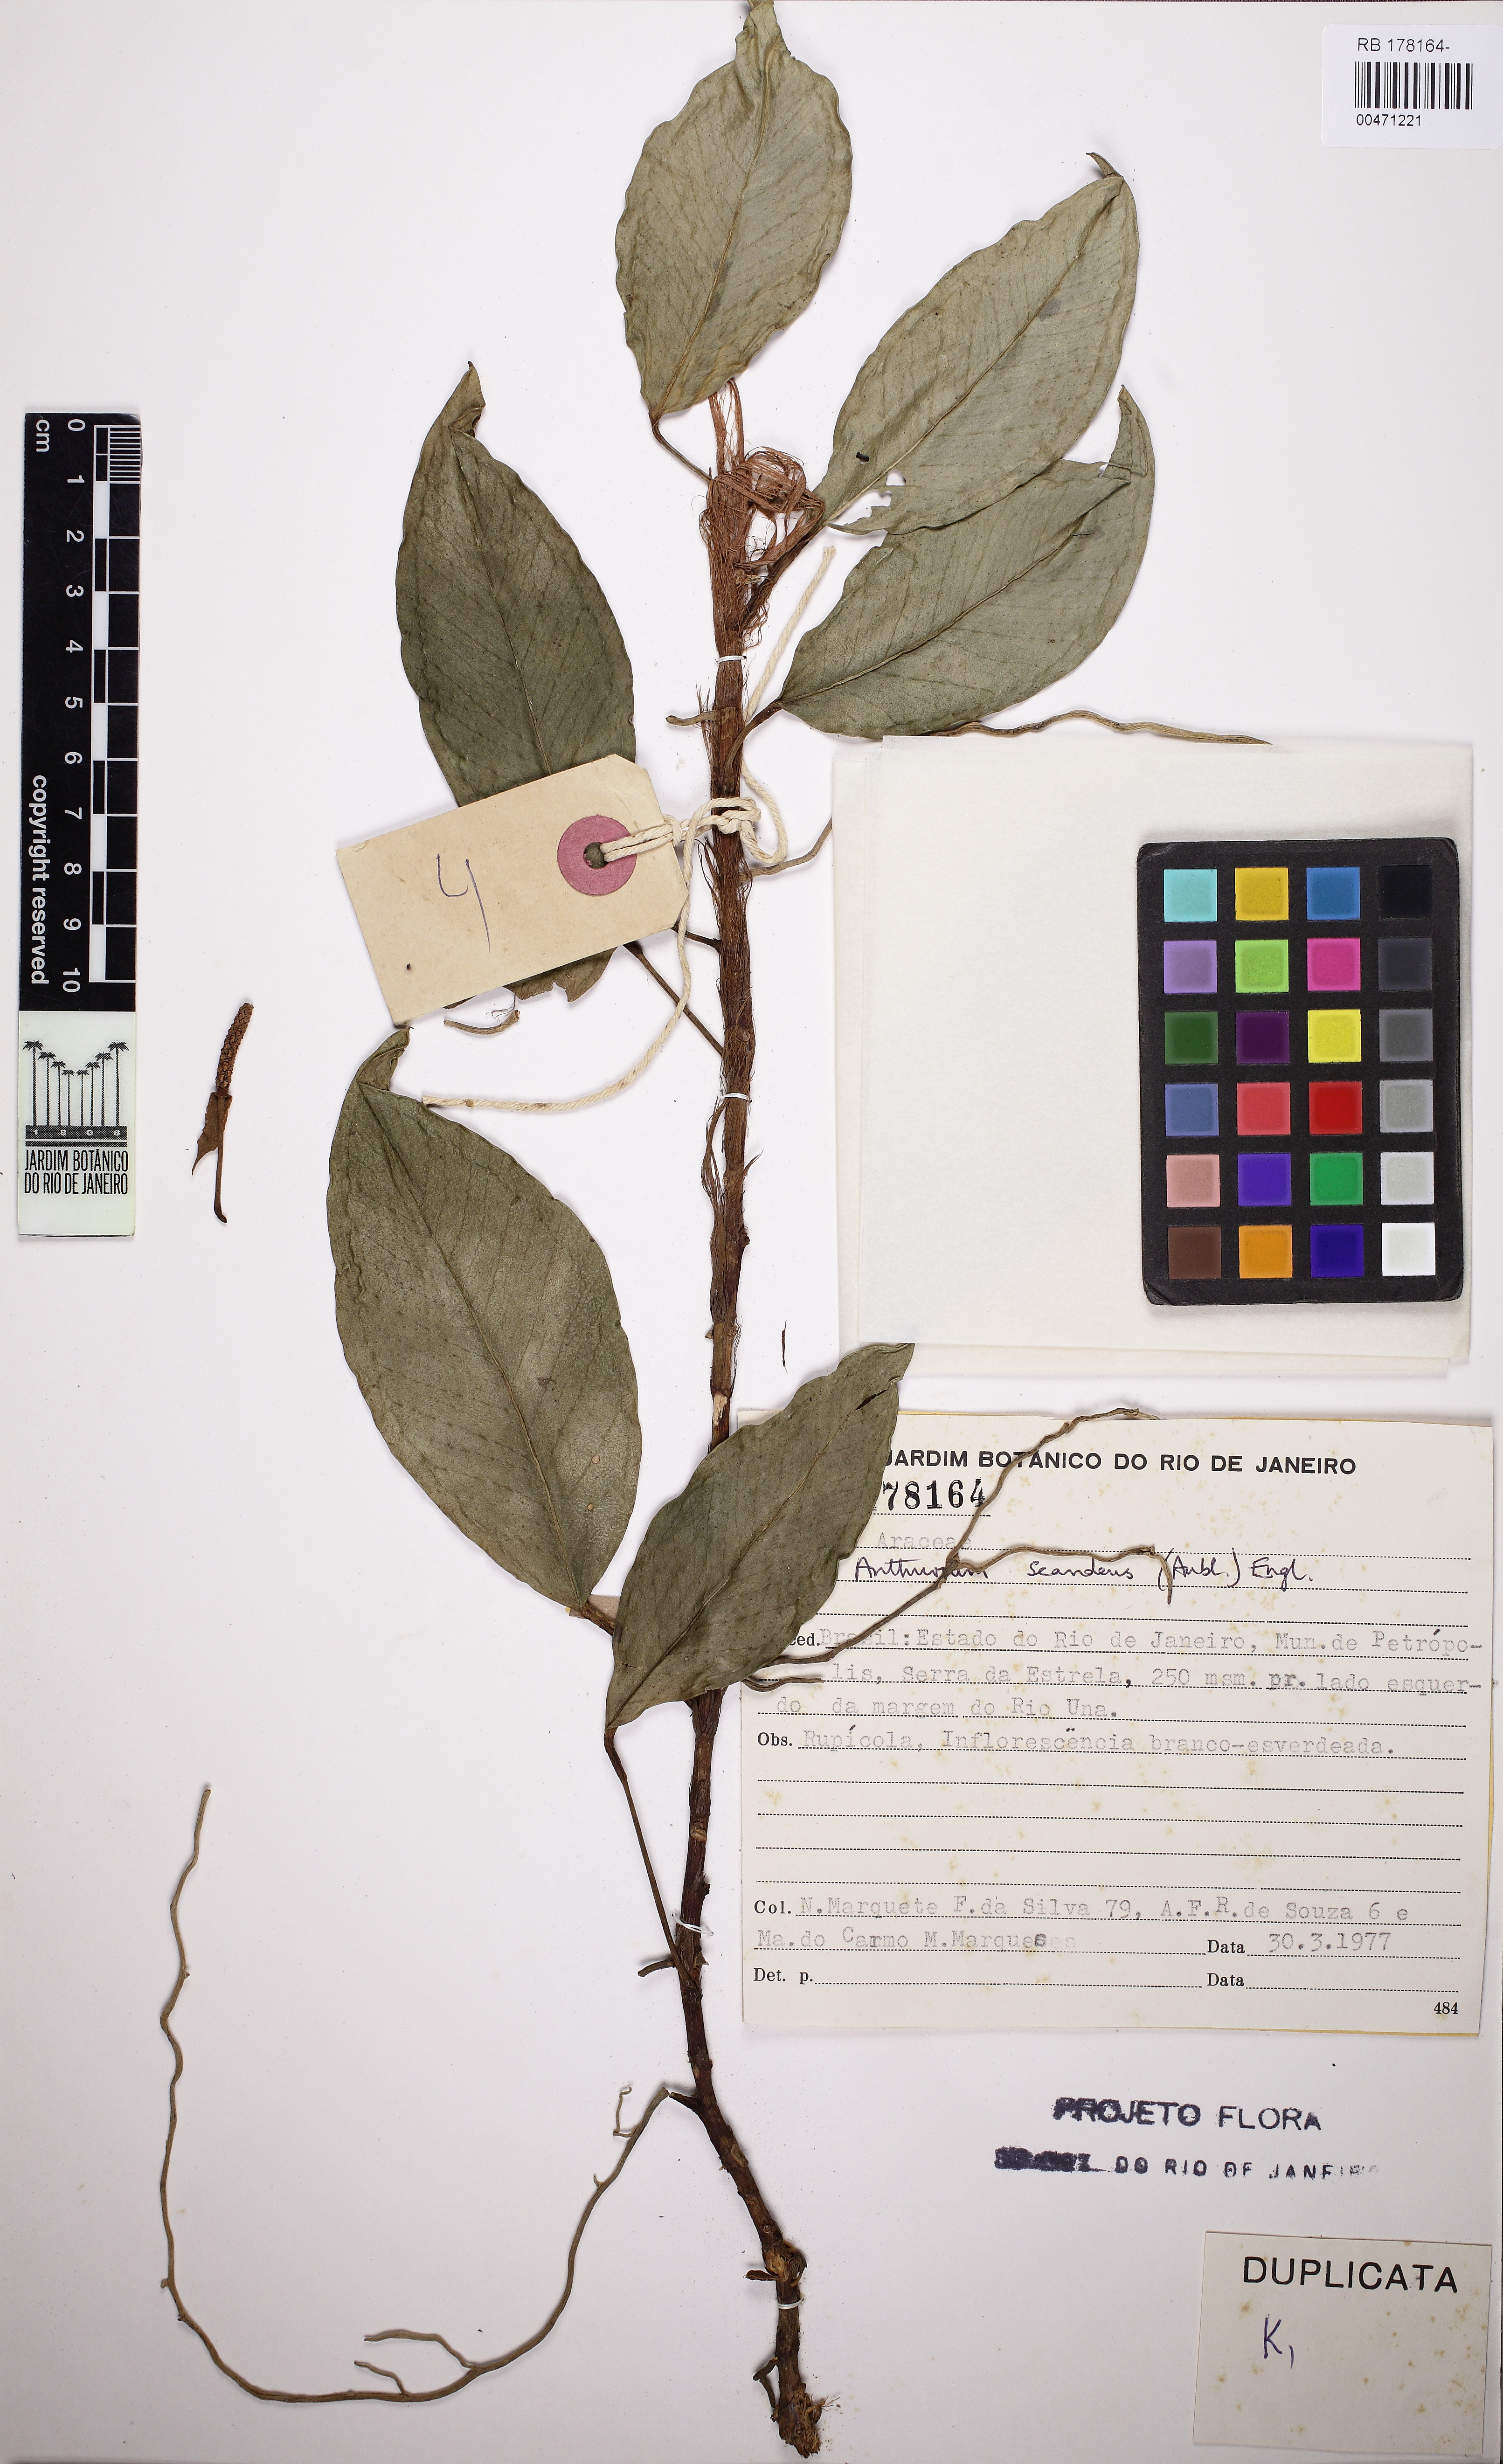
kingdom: Plantae
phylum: Tracheophyta
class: Liliopsida
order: Alismatales
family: Araceae
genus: Anthurium
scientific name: Anthurium scandens
